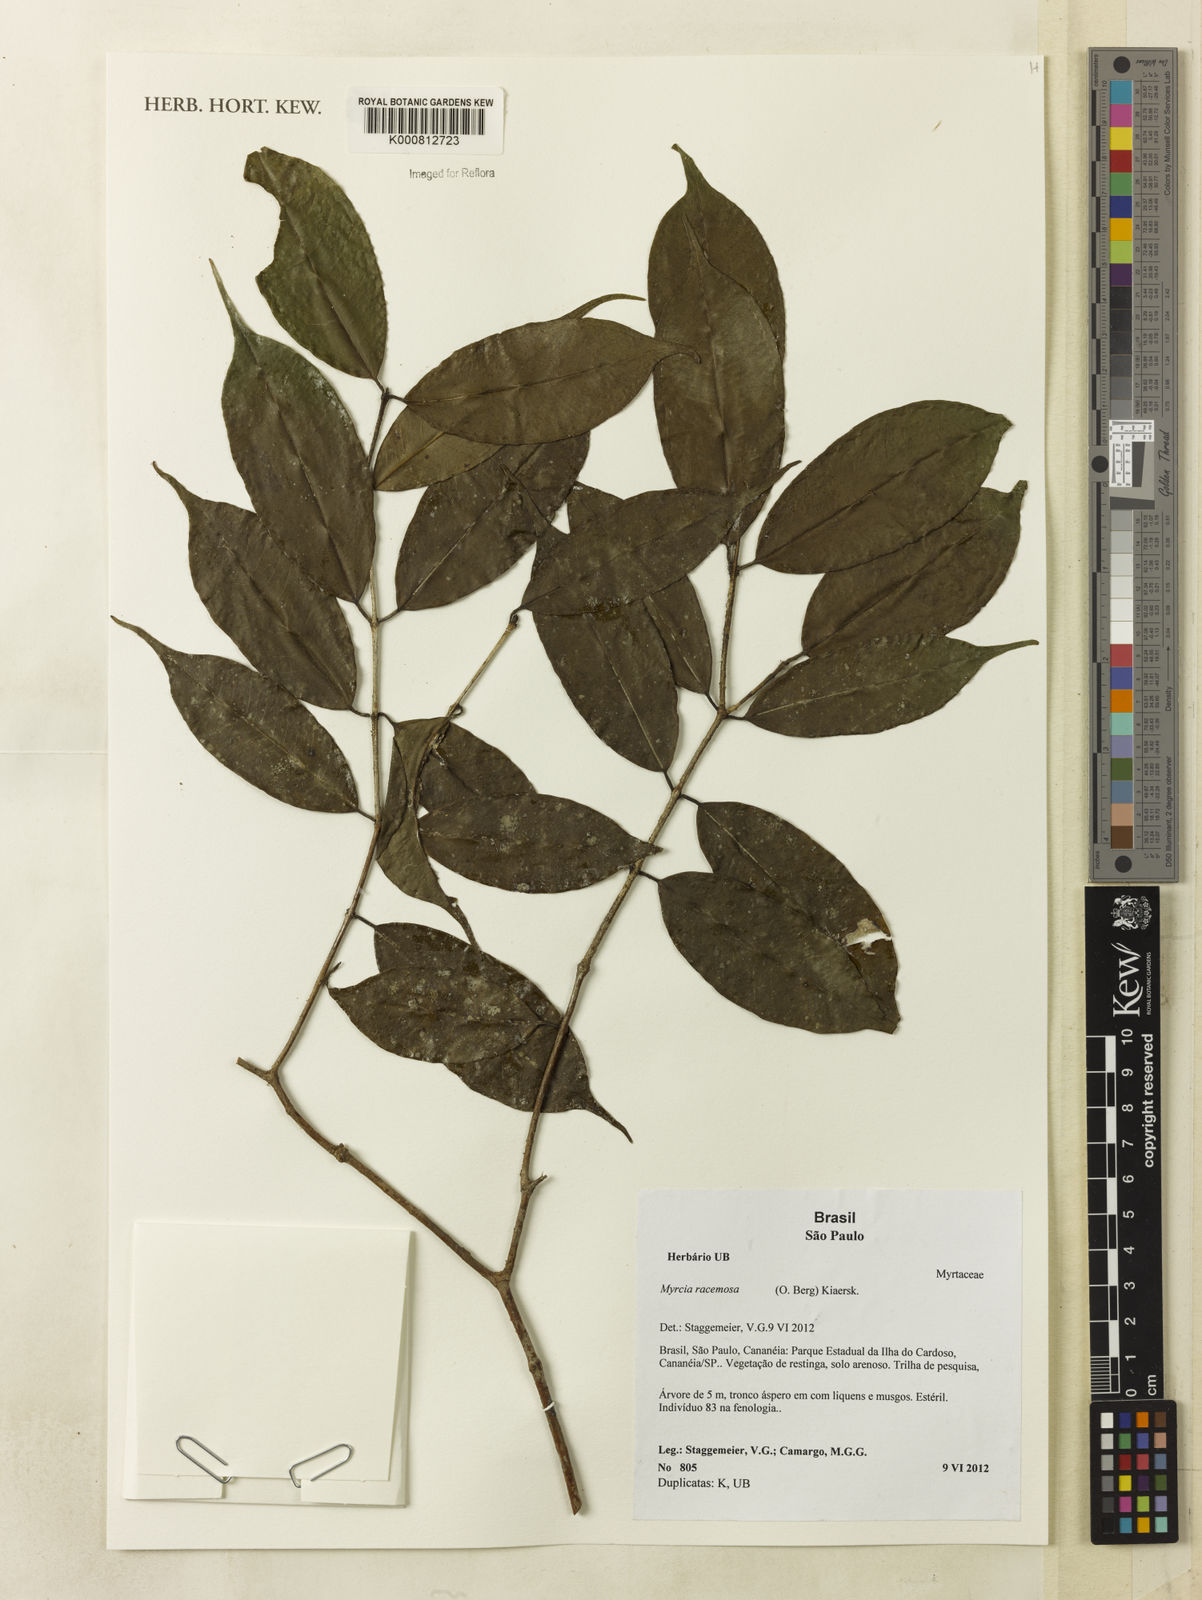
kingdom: Plantae
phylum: Tracheophyta
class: Magnoliopsida
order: Myrtales
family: Myrtaceae
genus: Myrcia
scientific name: Myrcia racemosa
